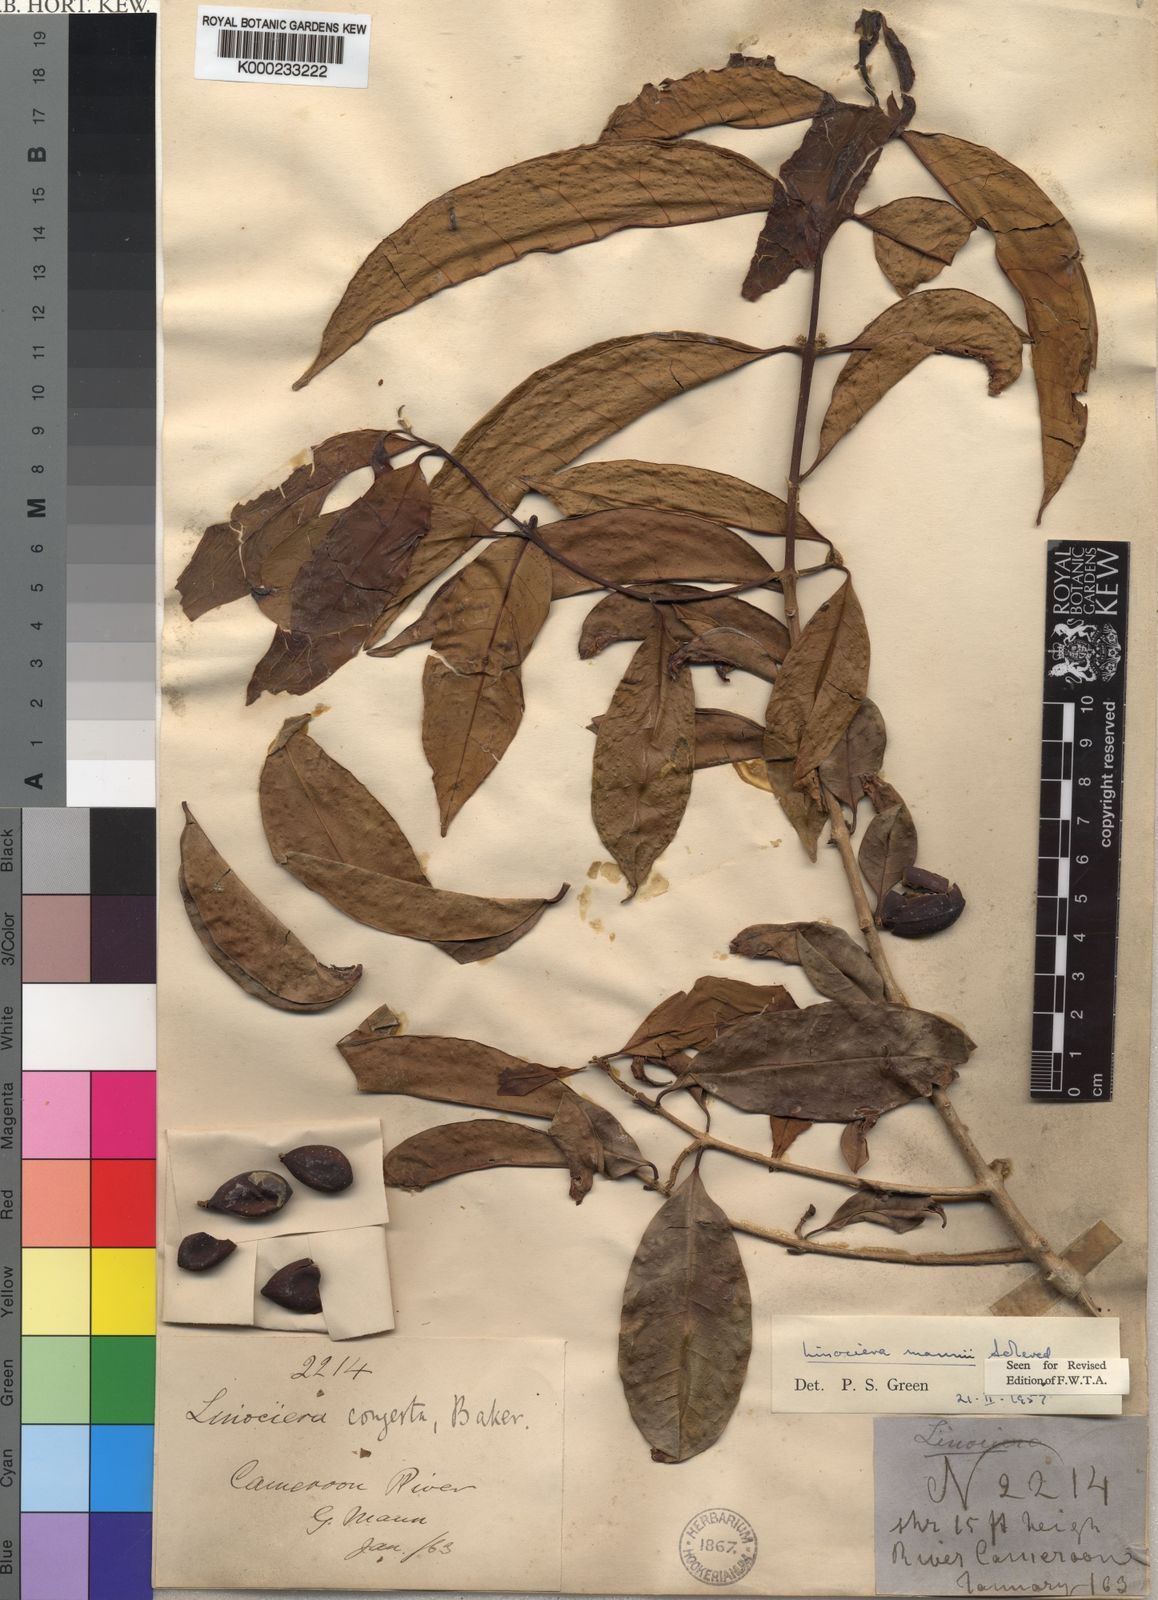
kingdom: Plantae
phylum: Tracheophyta
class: Magnoliopsida
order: Lamiales
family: Oleaceae
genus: Noronhia
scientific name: Noronhia nilotica
